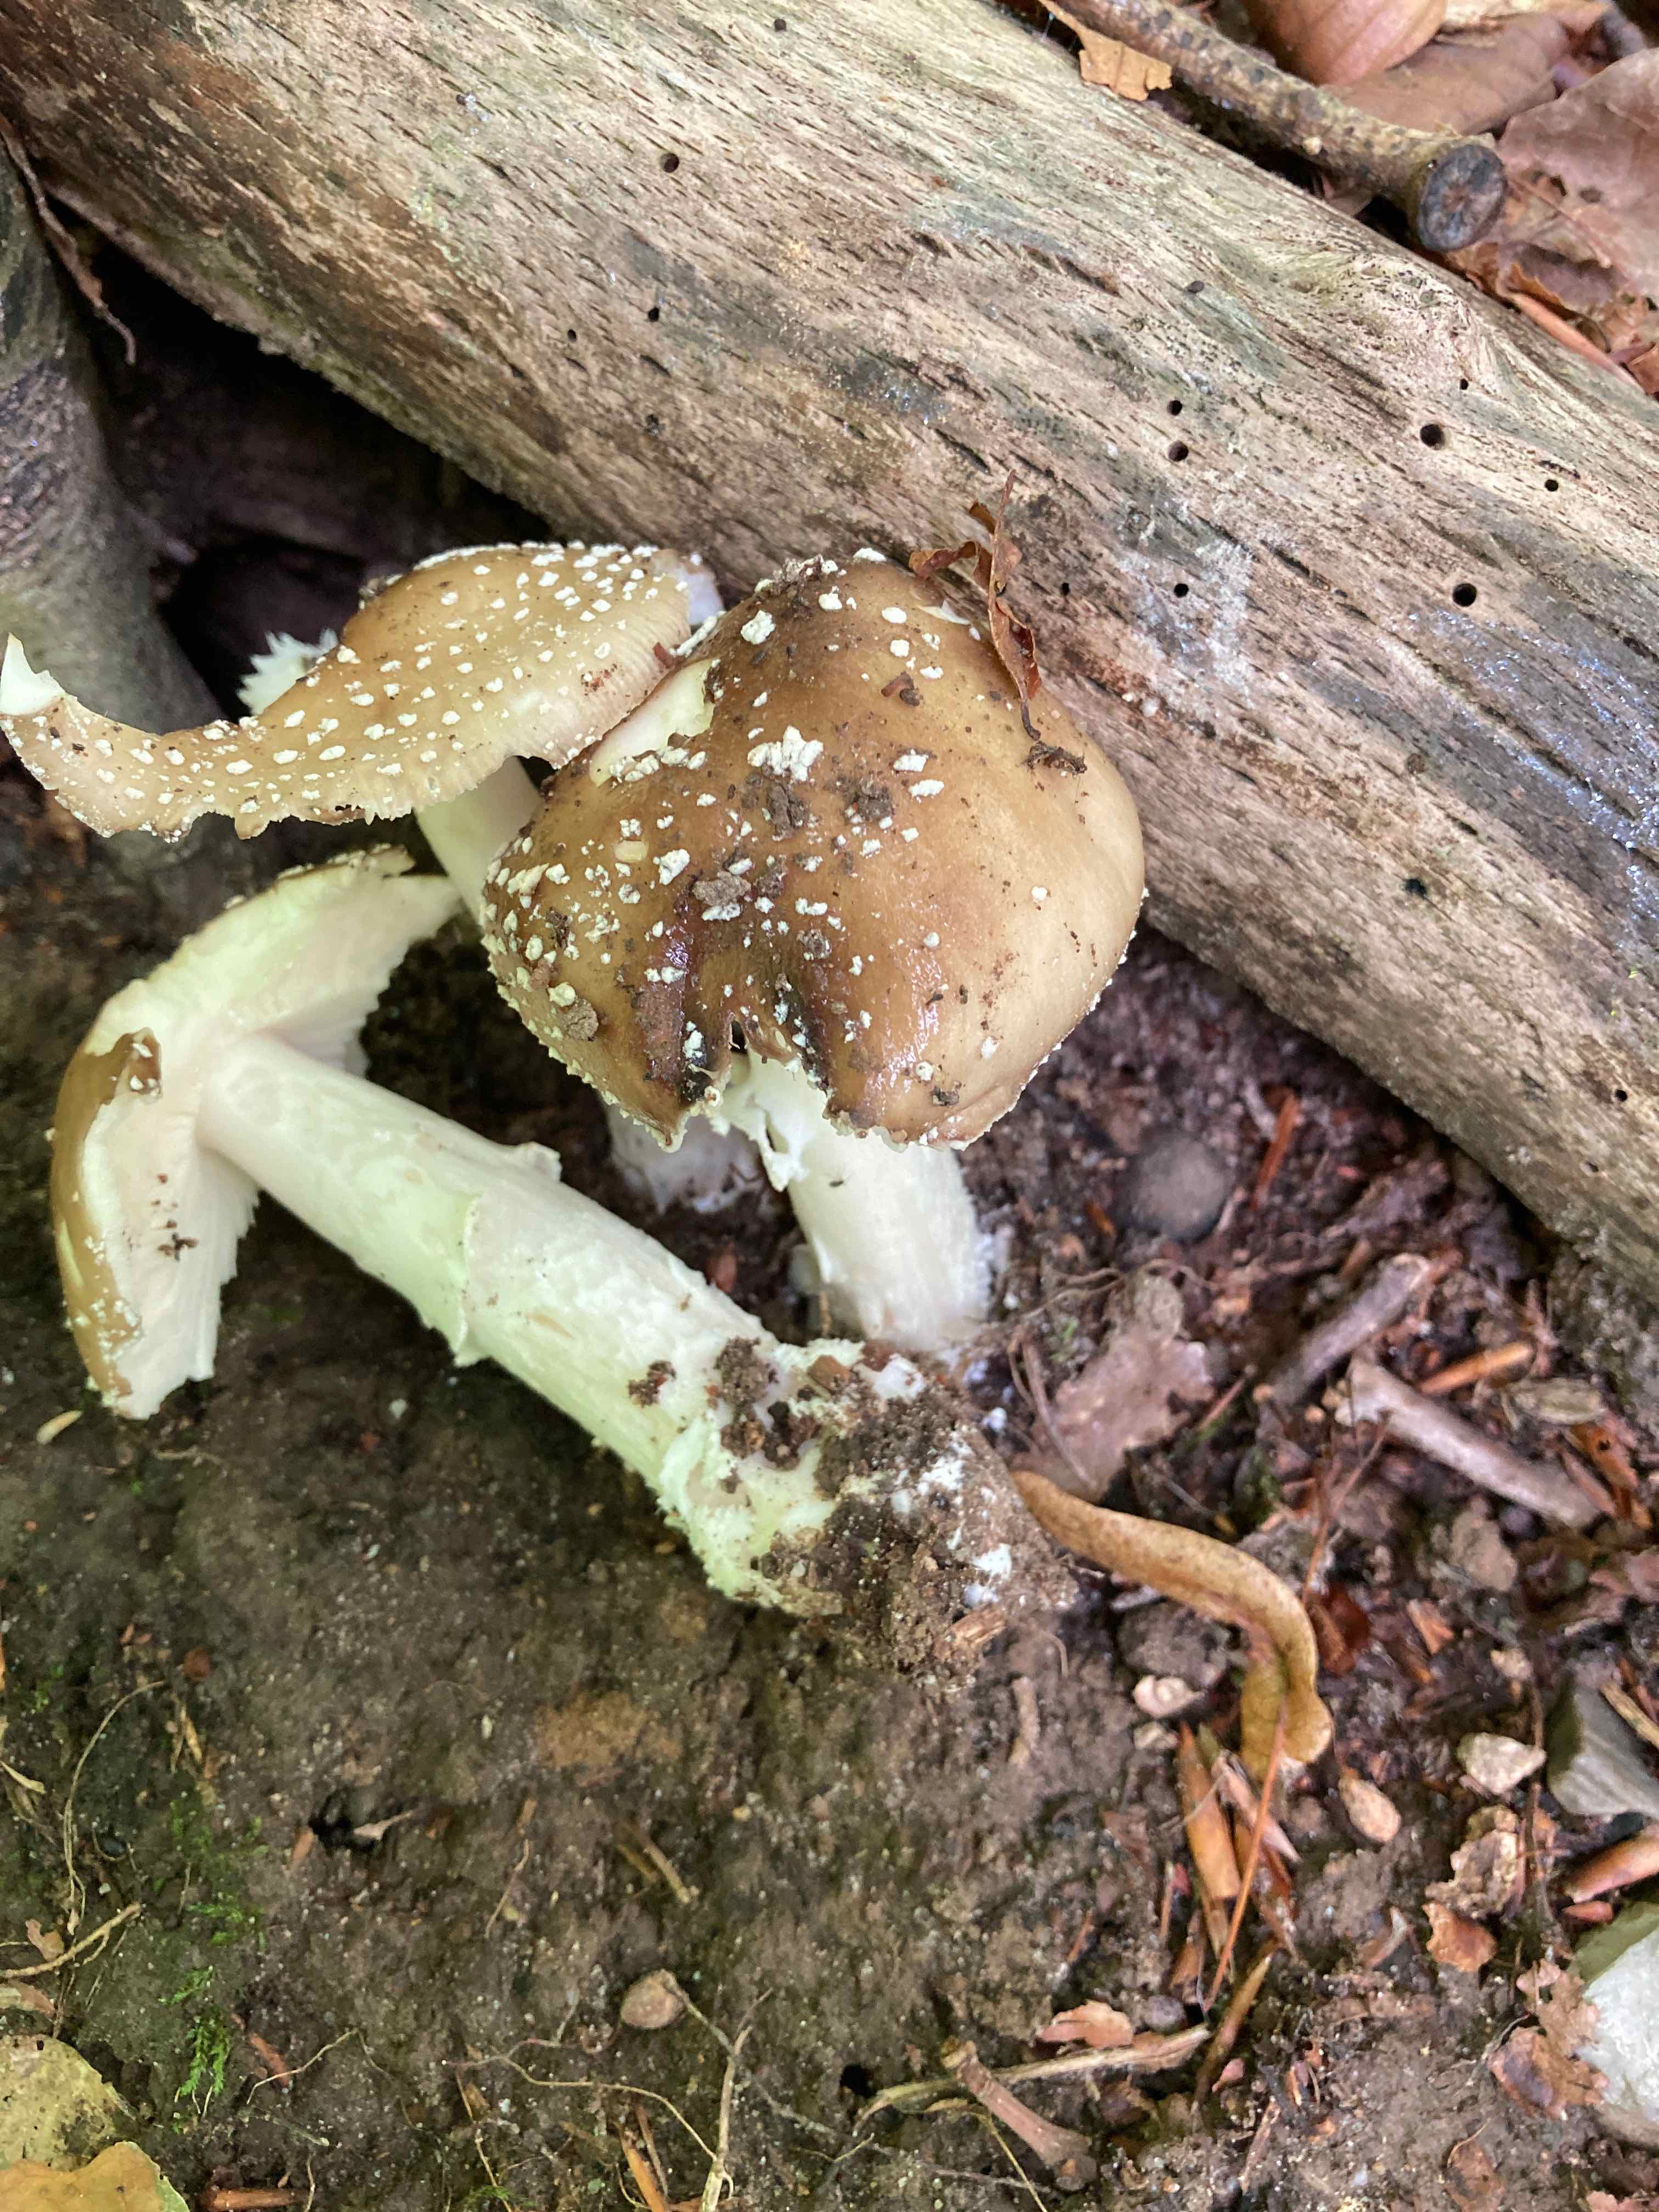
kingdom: Fungi
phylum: Basidiomycota
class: Agaricomycetes
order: Agaricales
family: Amanitaceae
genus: Amanita
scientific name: Amanita
